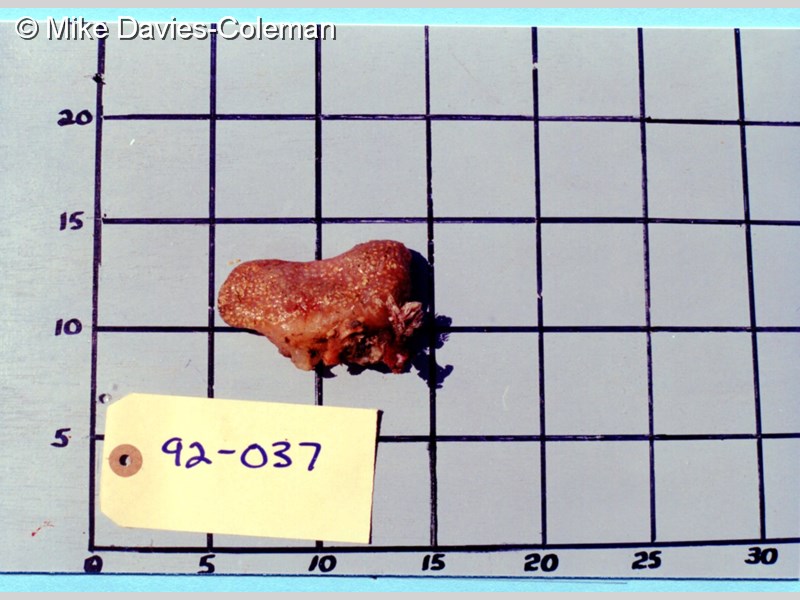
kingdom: Animalia
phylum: Chordata
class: Ascidiacea
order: Aplousobranchia
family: Polycitoridae
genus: Eudistoma
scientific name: Eudistoma
